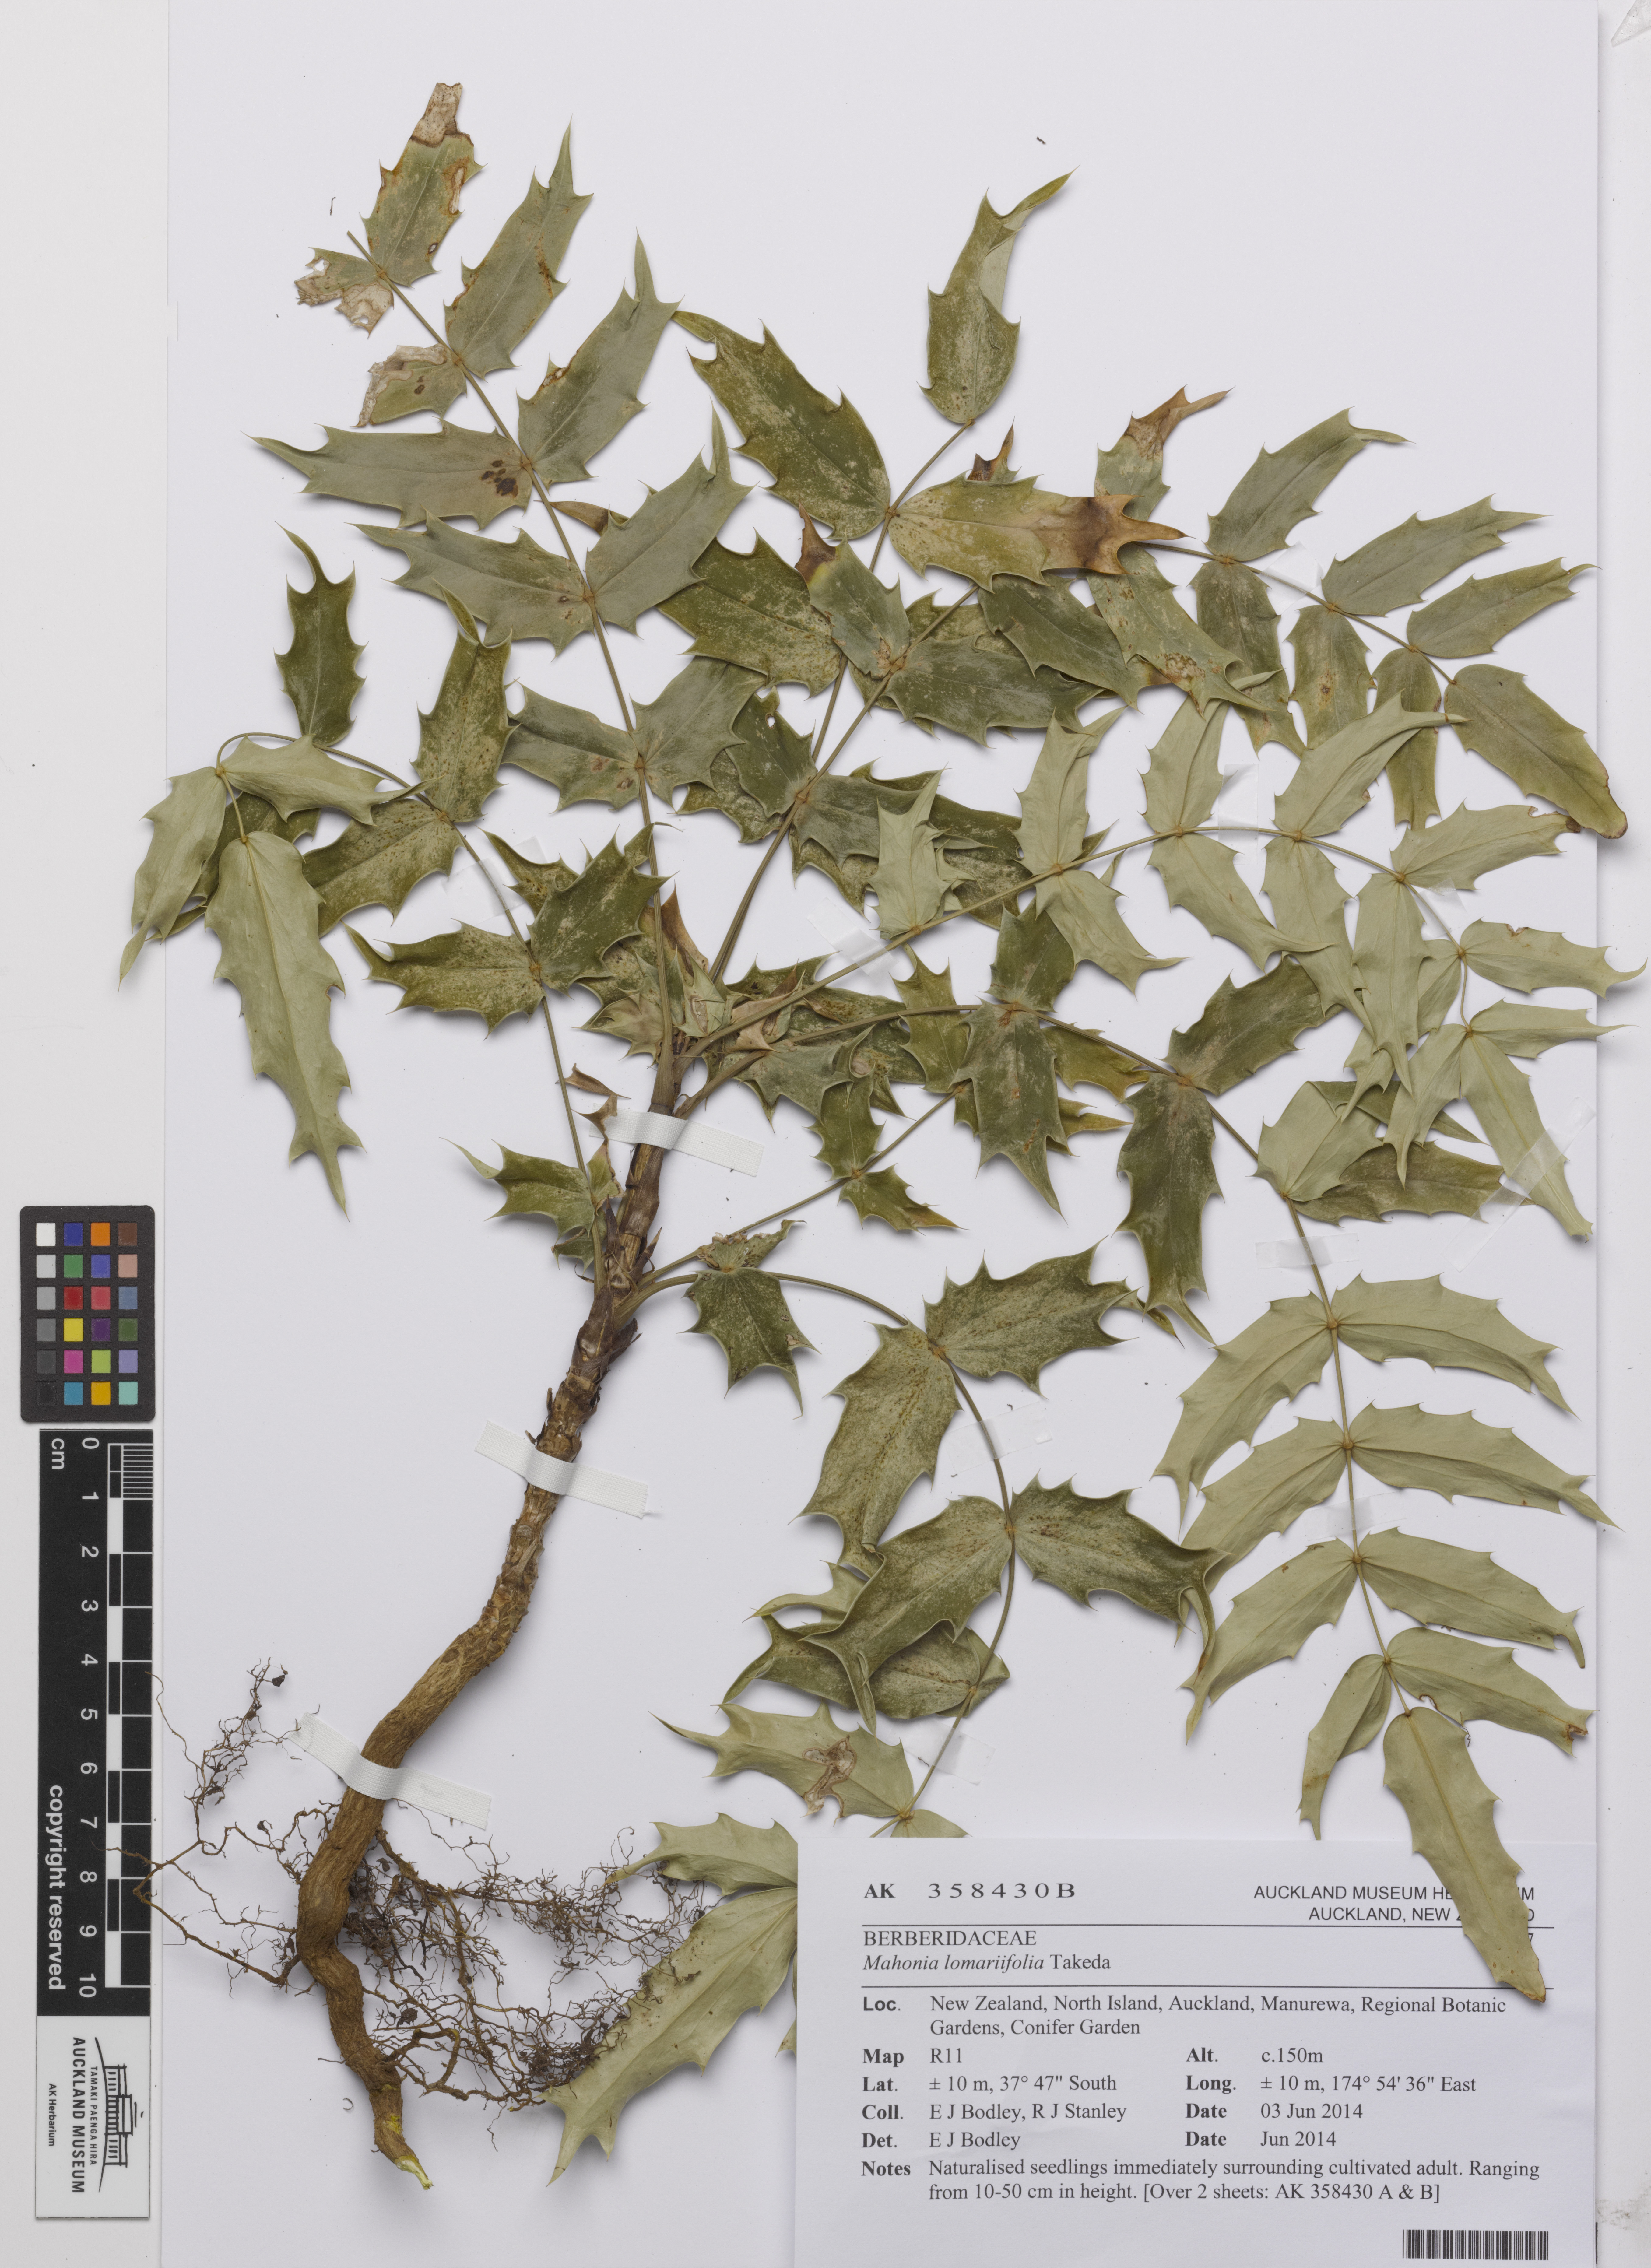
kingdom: Plantae
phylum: Tracheophyta
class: Magnoliopsida
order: Ranunculales
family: Berberidaceae
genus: Mahonia
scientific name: Mahonia oiwakensis
